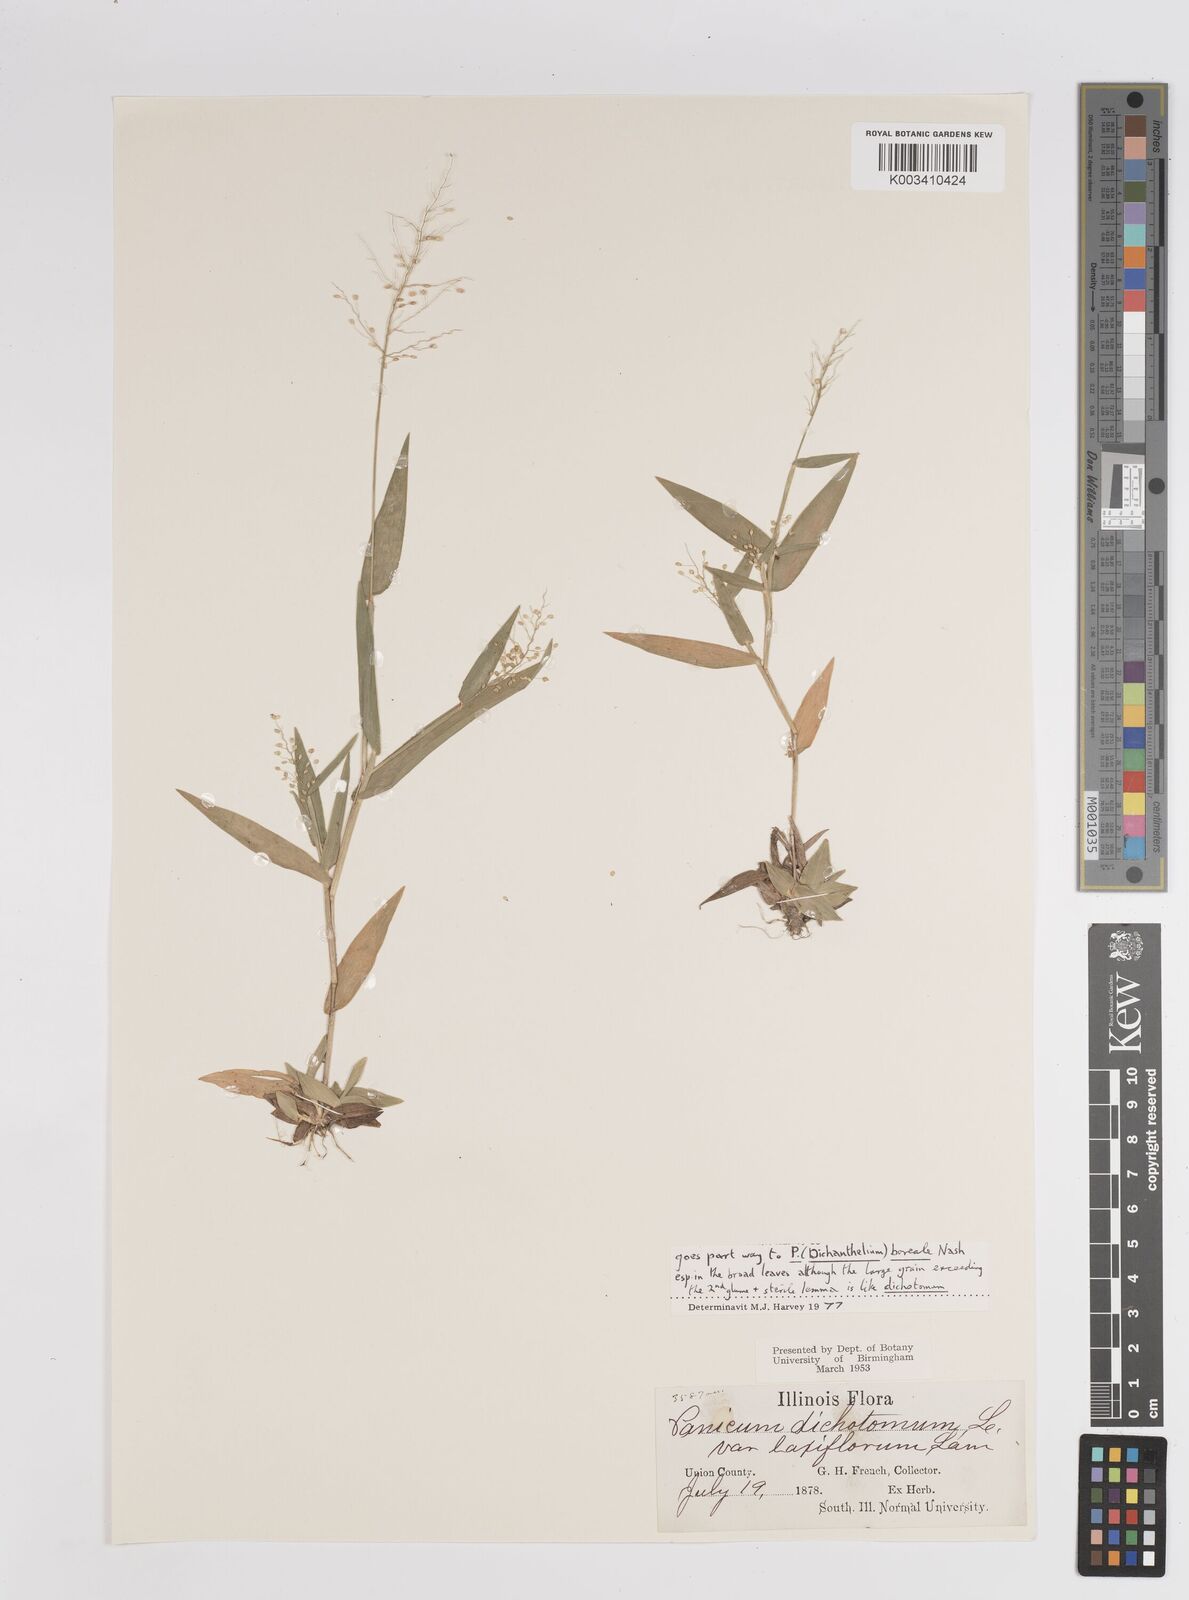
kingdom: Plantae
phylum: Tracheophyta
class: Liliopsida
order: Poales
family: Poaceae
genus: Dichanthelium
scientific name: Dichanthelium dichotomum
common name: Cypress panicgrass
